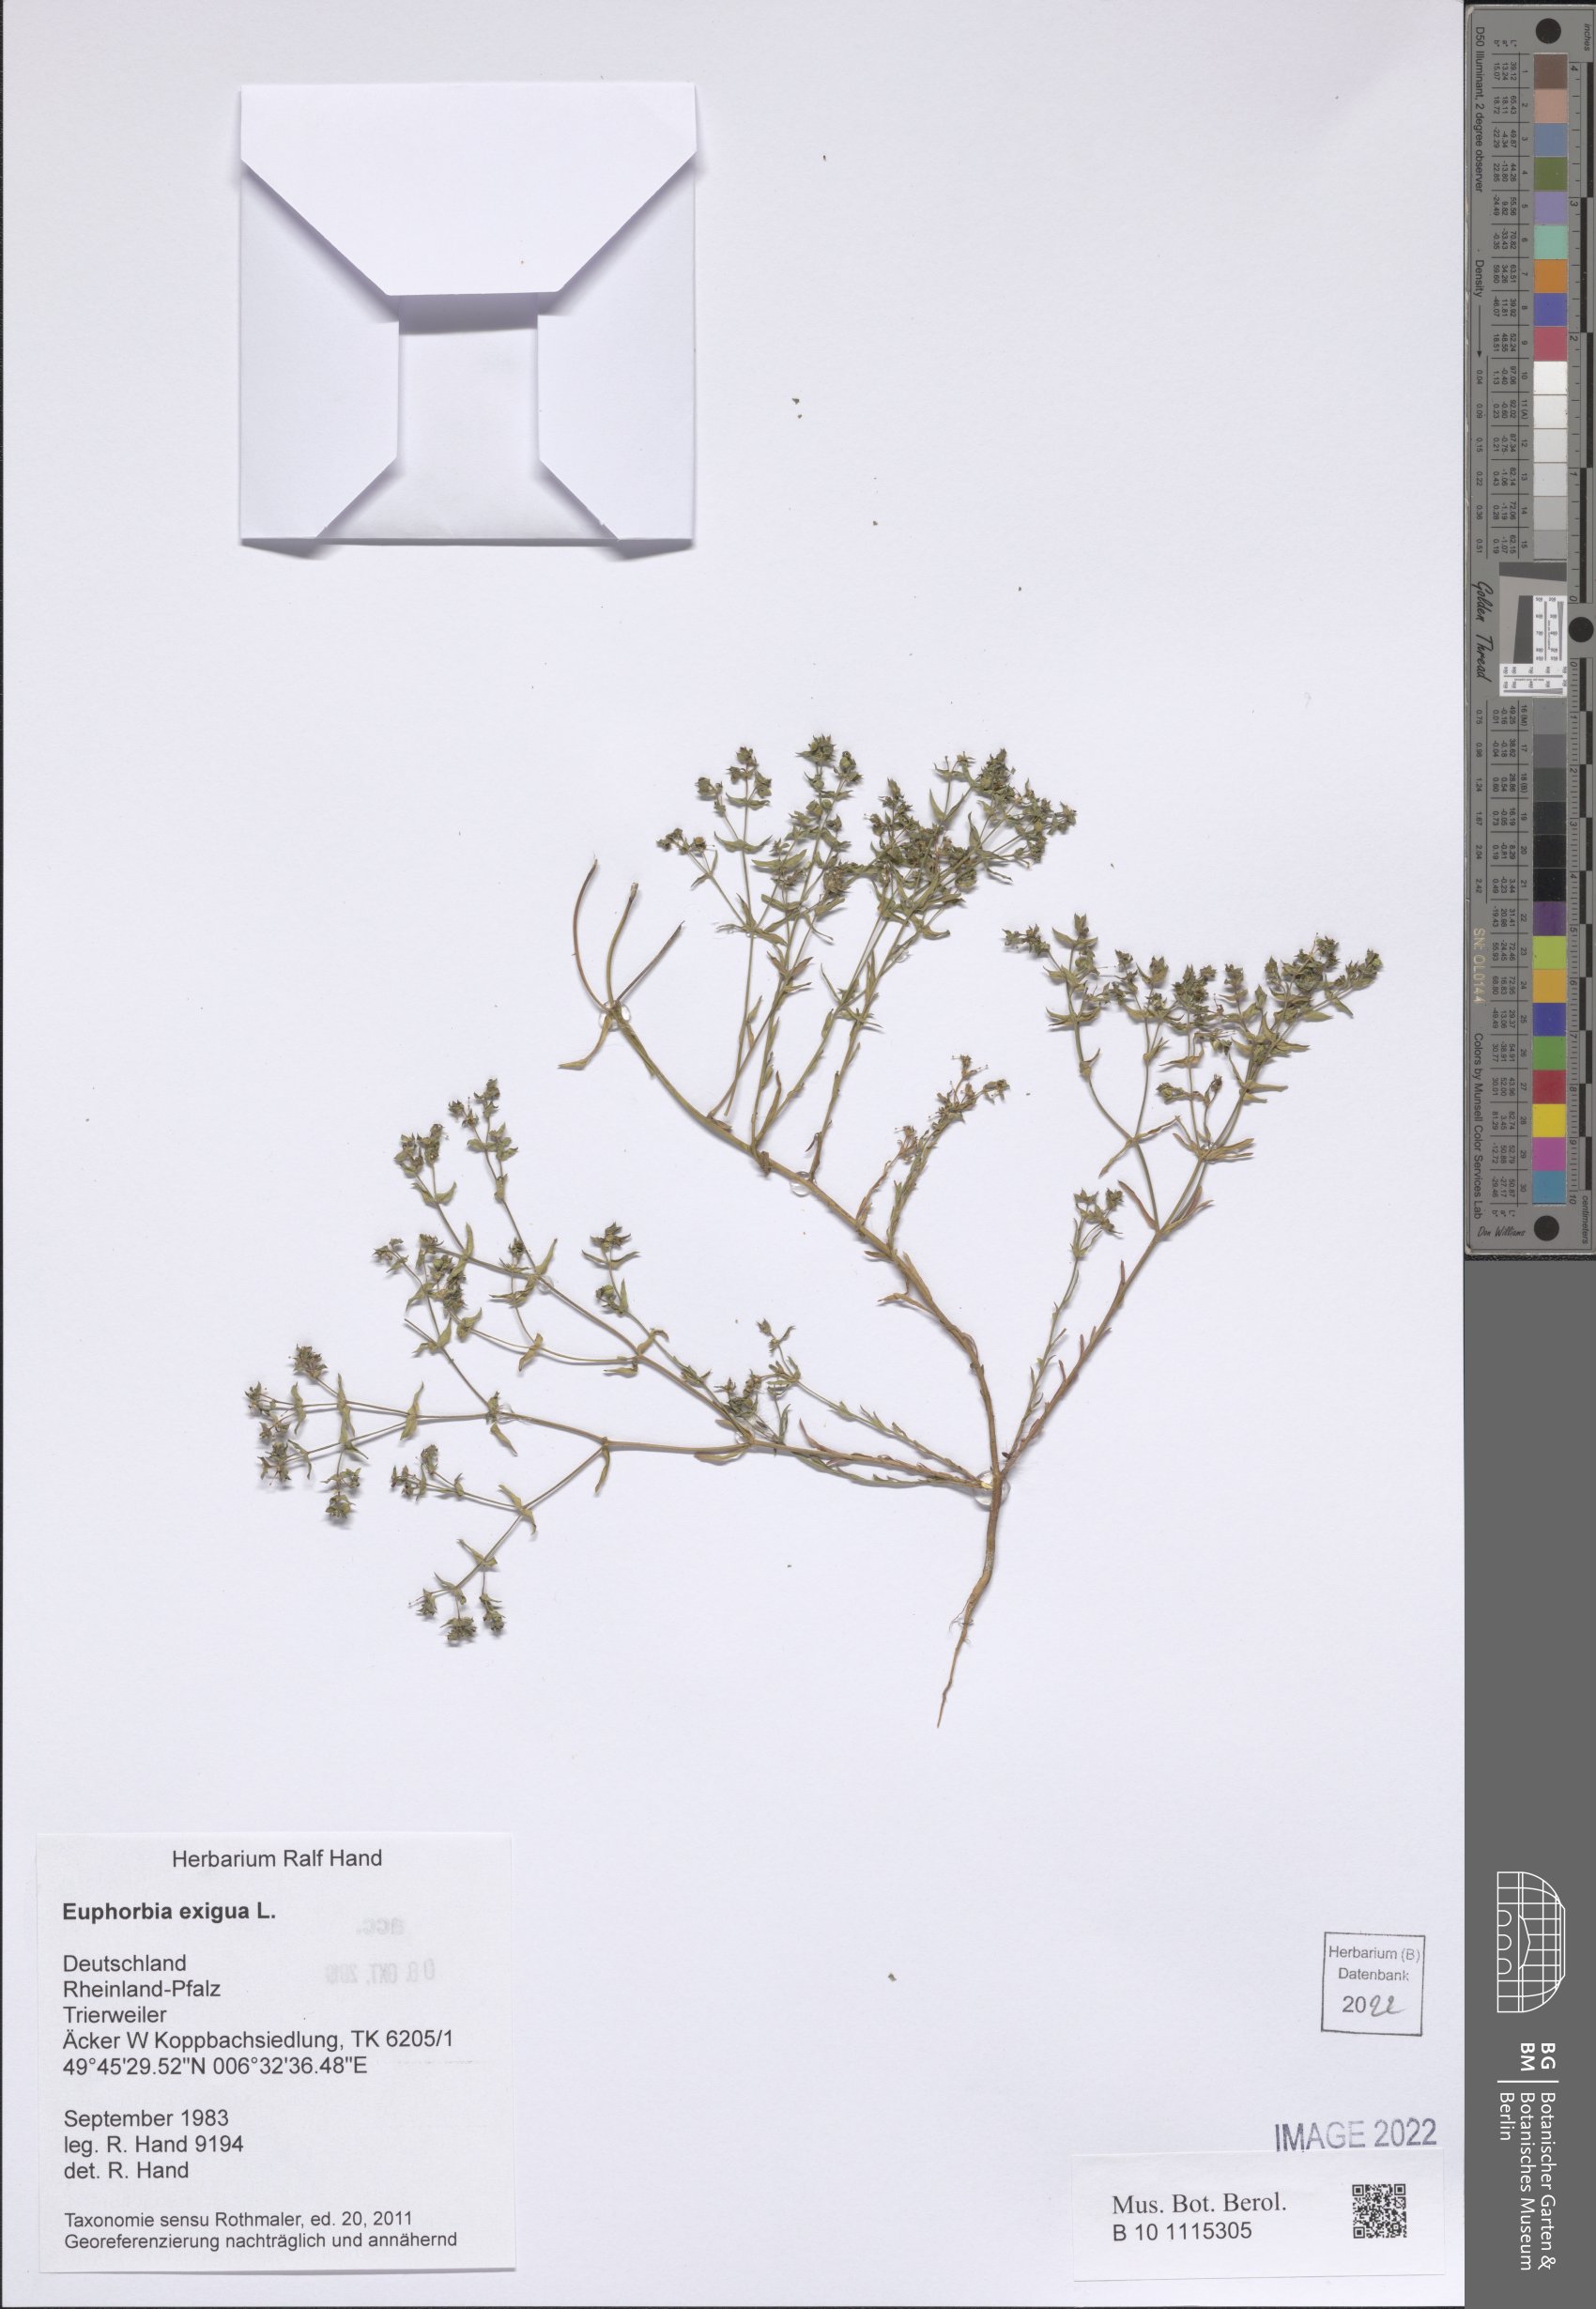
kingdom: Plantae
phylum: Tracheophyta
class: Magnoliopsida
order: Malpighiales
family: Euphorbiaceae
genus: Euphorbia
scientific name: Euphorbia exigua
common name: Dwarf spurge
